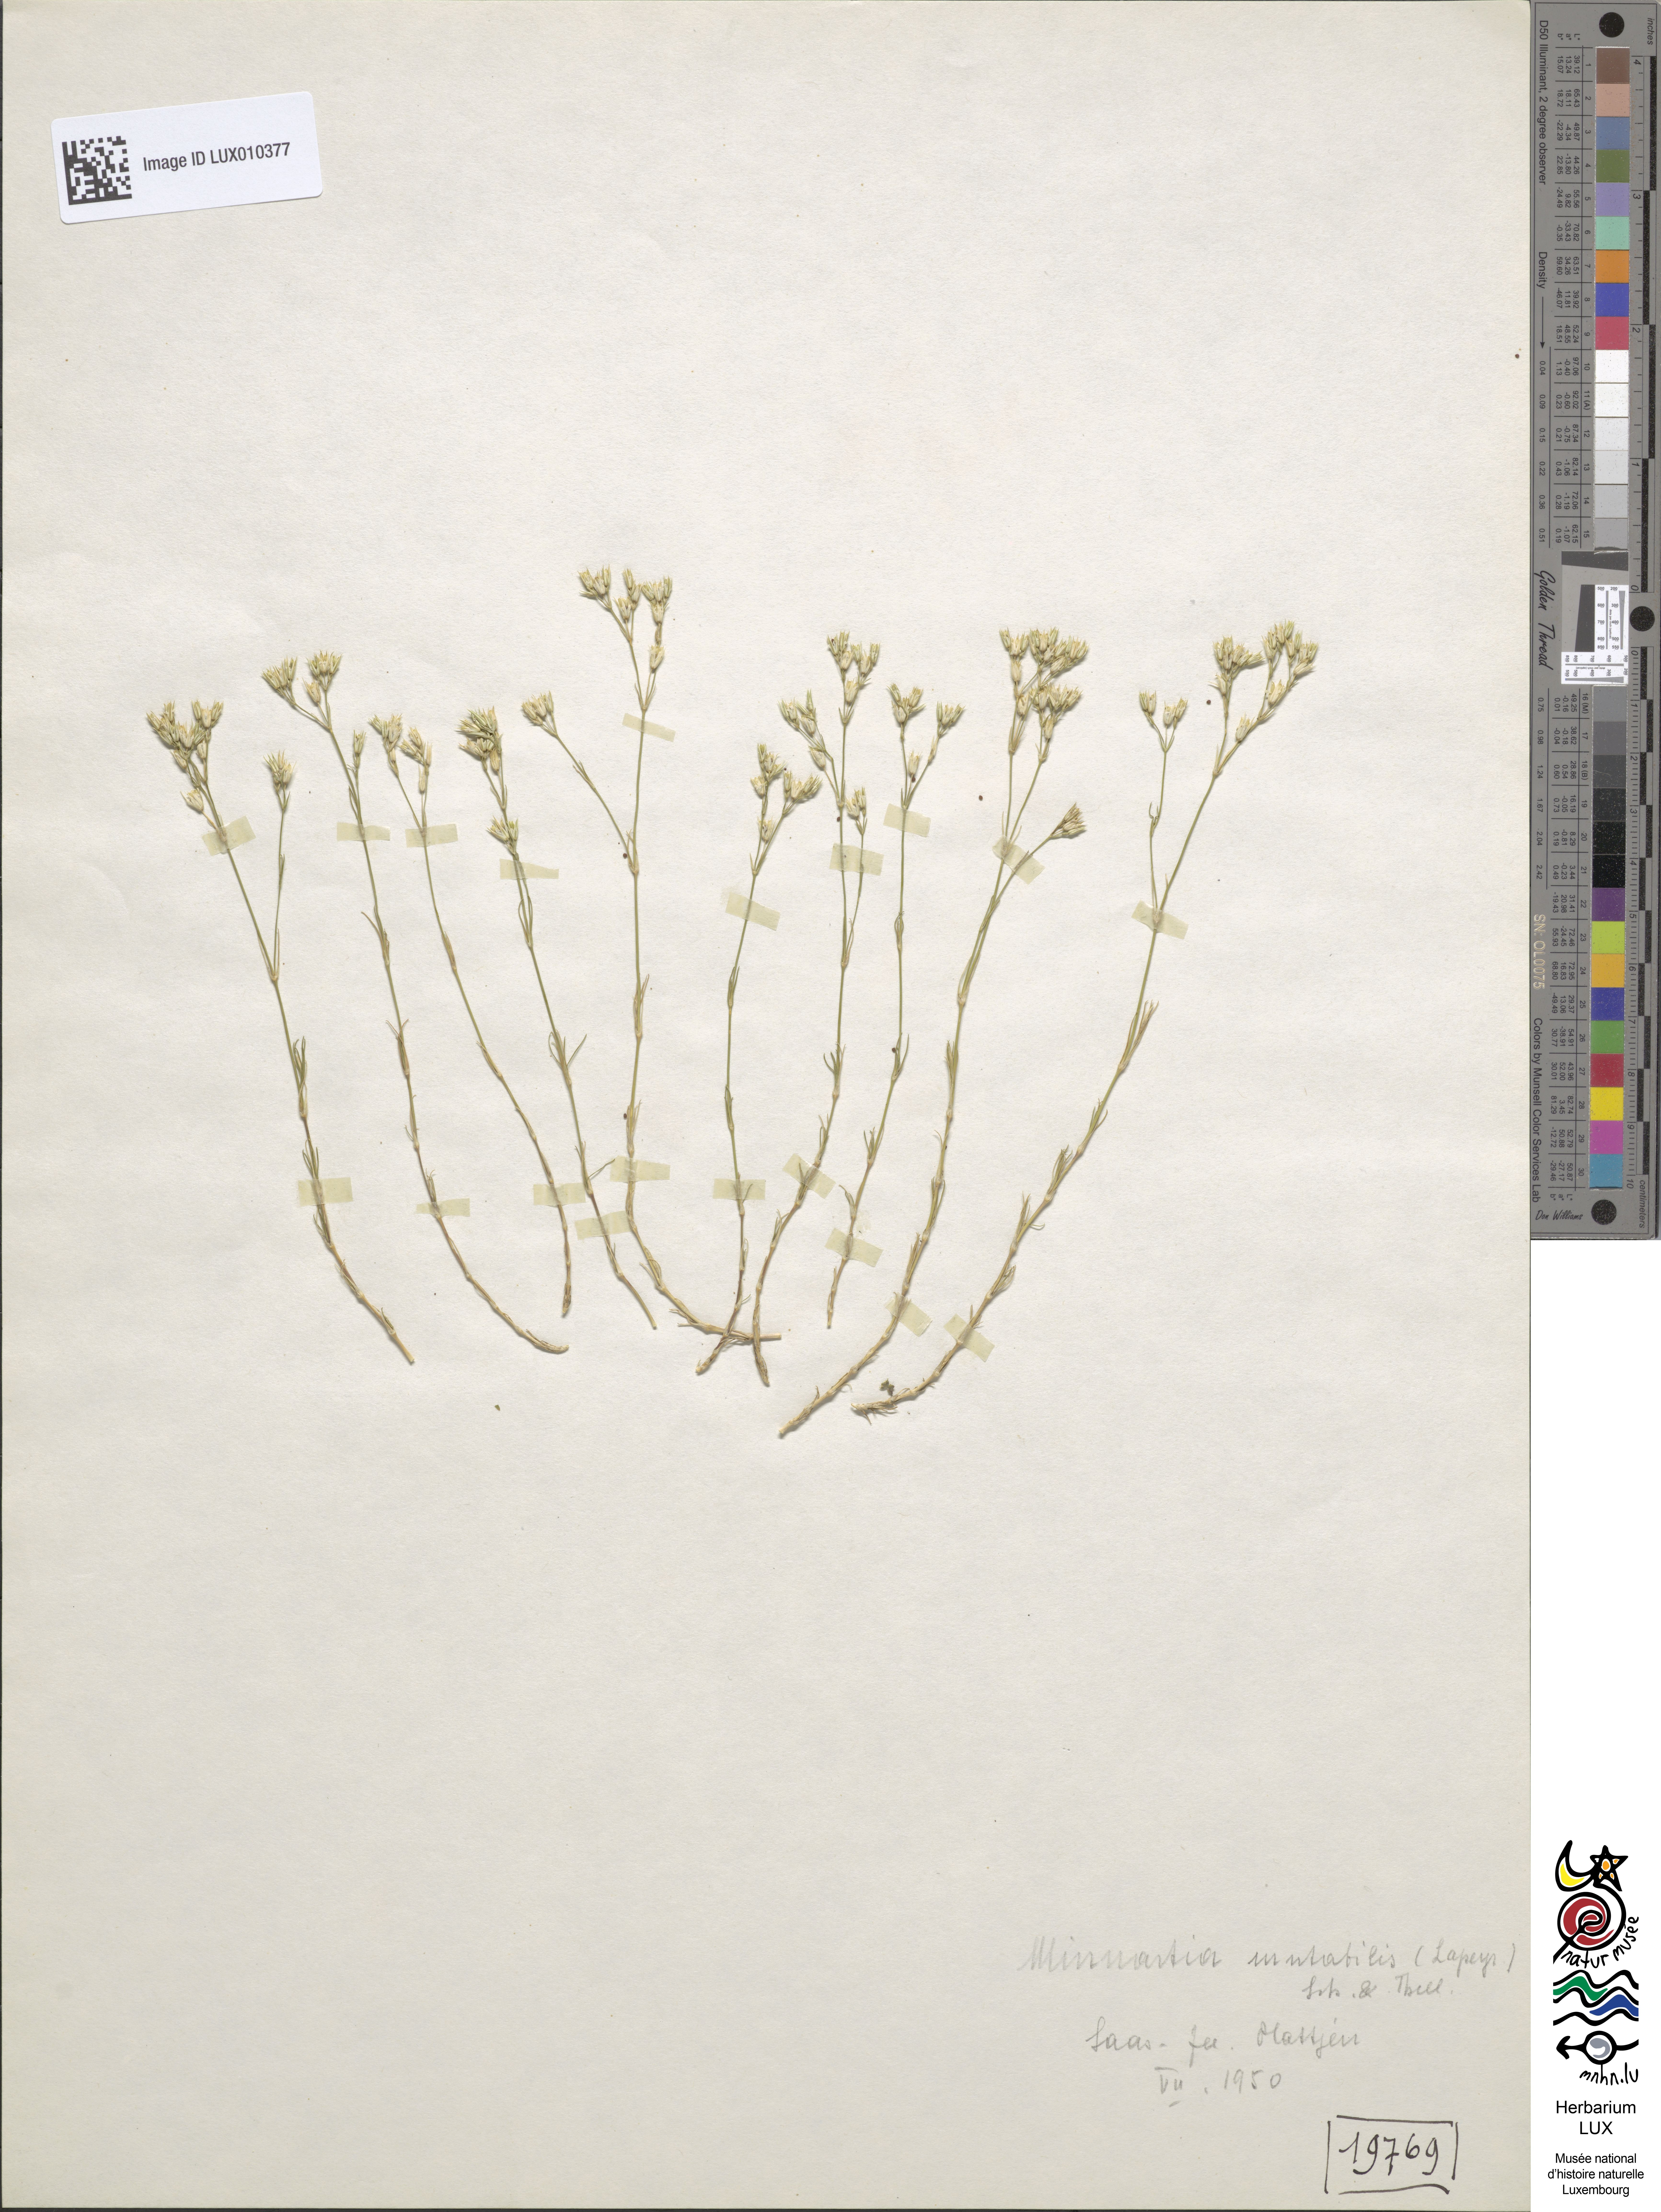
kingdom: Plantae
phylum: Tracheophyta
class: Magnoliopsida
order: Caryophyllales
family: Caryophyllaceae
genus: Minuartia
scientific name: Minuartia rostrata
